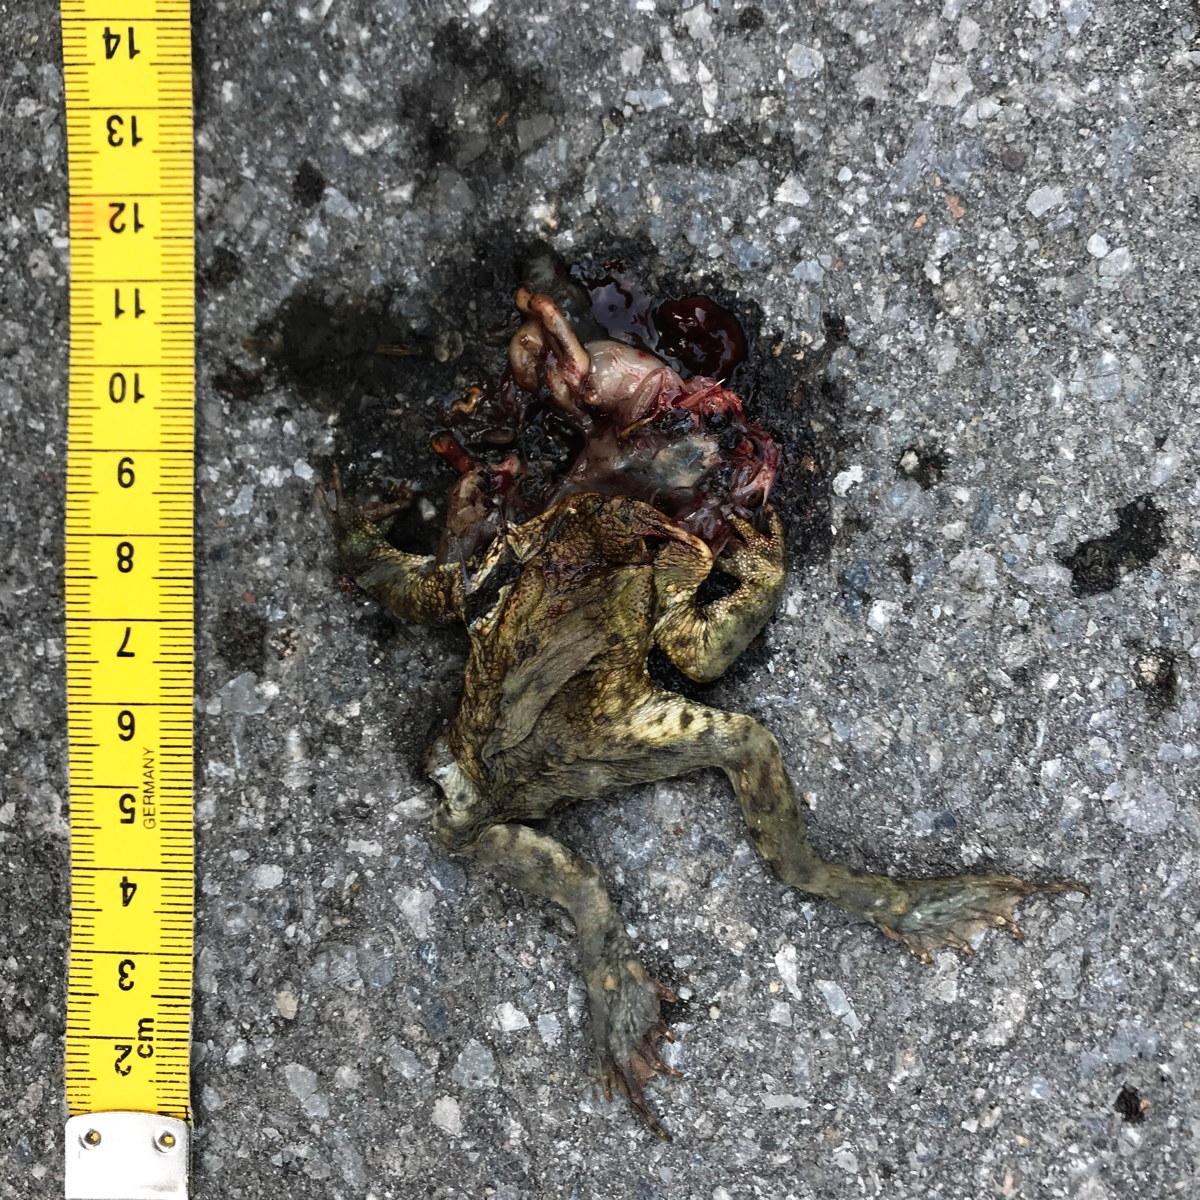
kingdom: Animalia
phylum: Chordata
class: Amphibia
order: Anura
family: Bufonidae
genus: Bufo
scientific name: Bufo bufo
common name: Common toad
